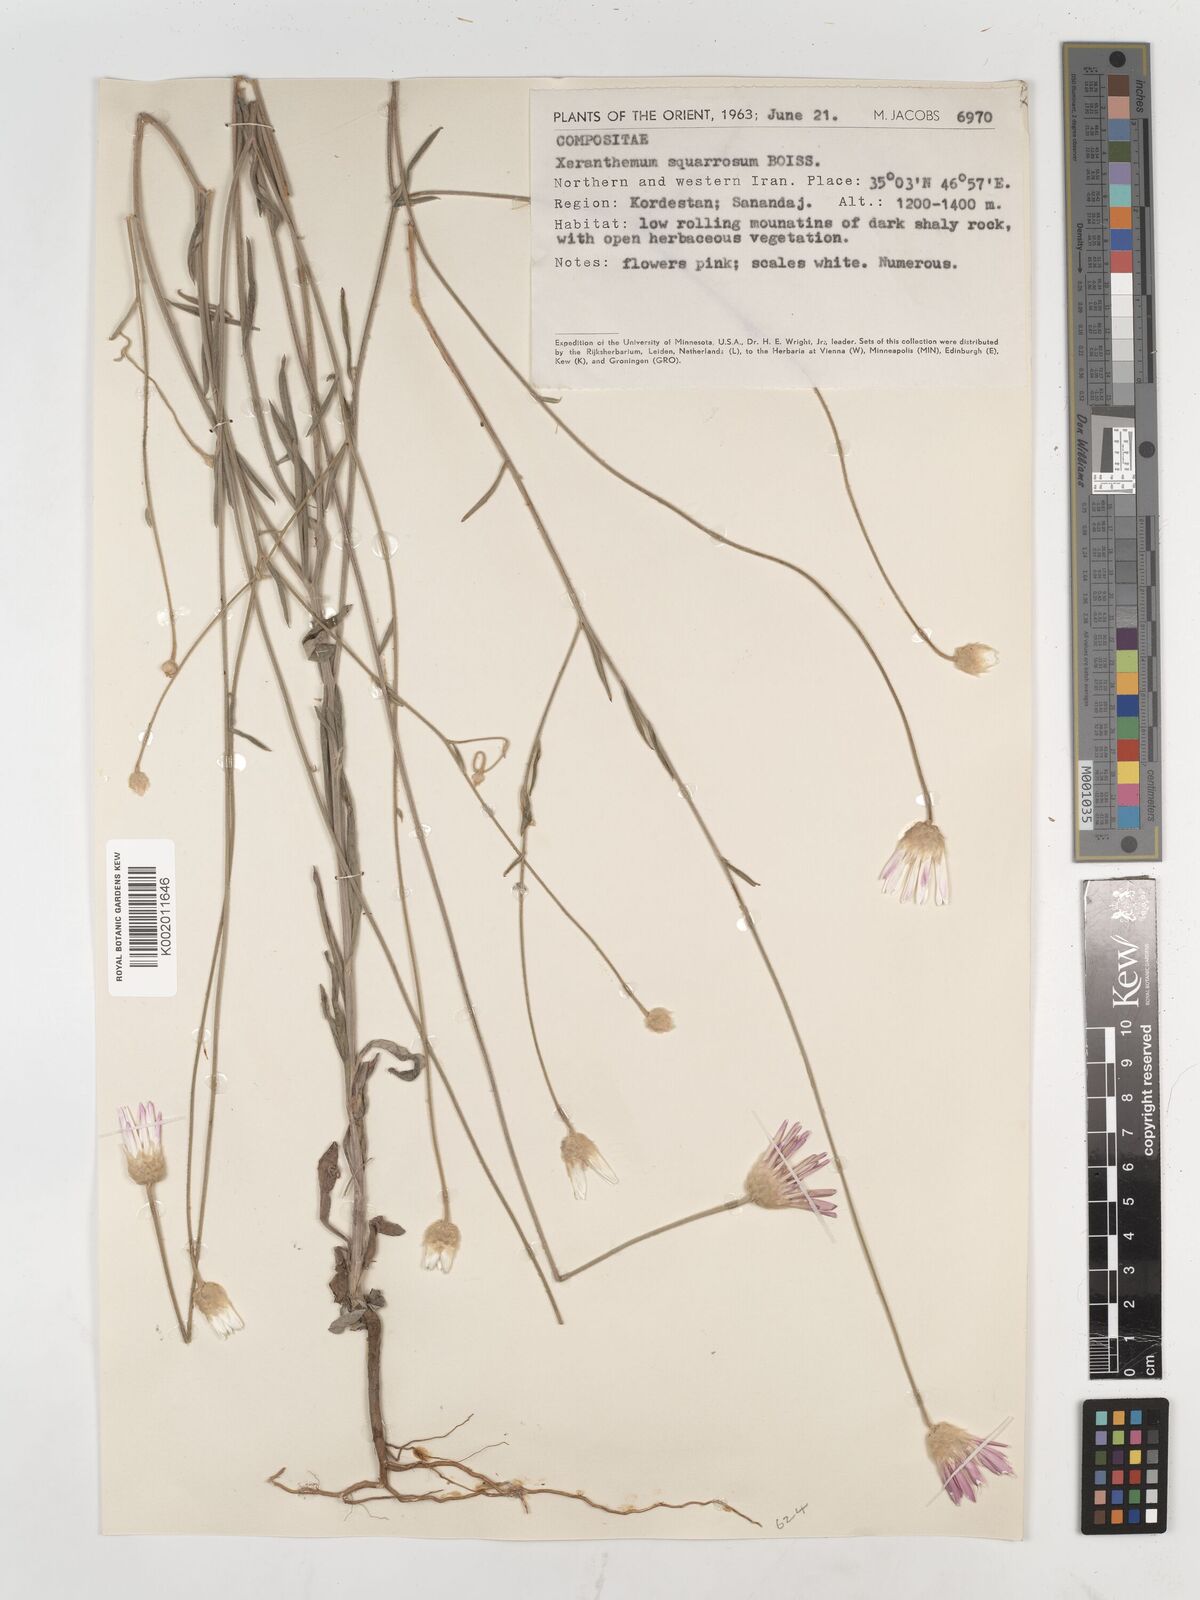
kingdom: Plantae
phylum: Tracheophyta
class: Magnoliopsida
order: Asterales
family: Asteraceae
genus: Xeranthemum
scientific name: Xeranthemum squarrosum
